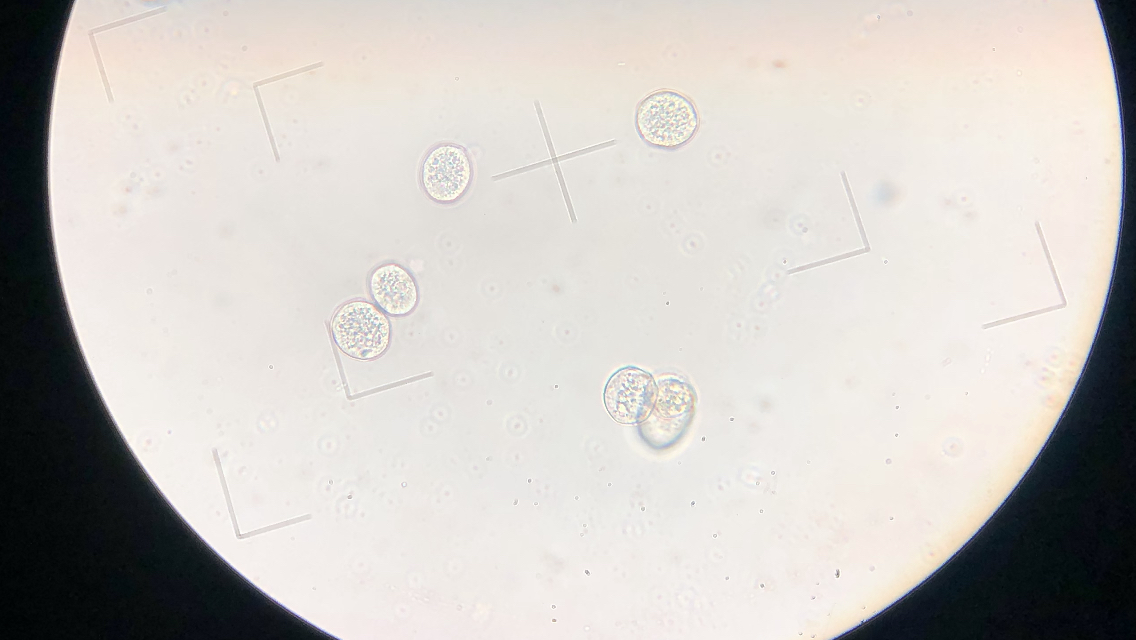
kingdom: Fungi
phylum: Basidiomycota
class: Pucciniomycetes
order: Pucciniales
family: Ochropsoraceae
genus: Ochropsora
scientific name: Ochropsora ariae
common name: anemone-okkerpletrust
